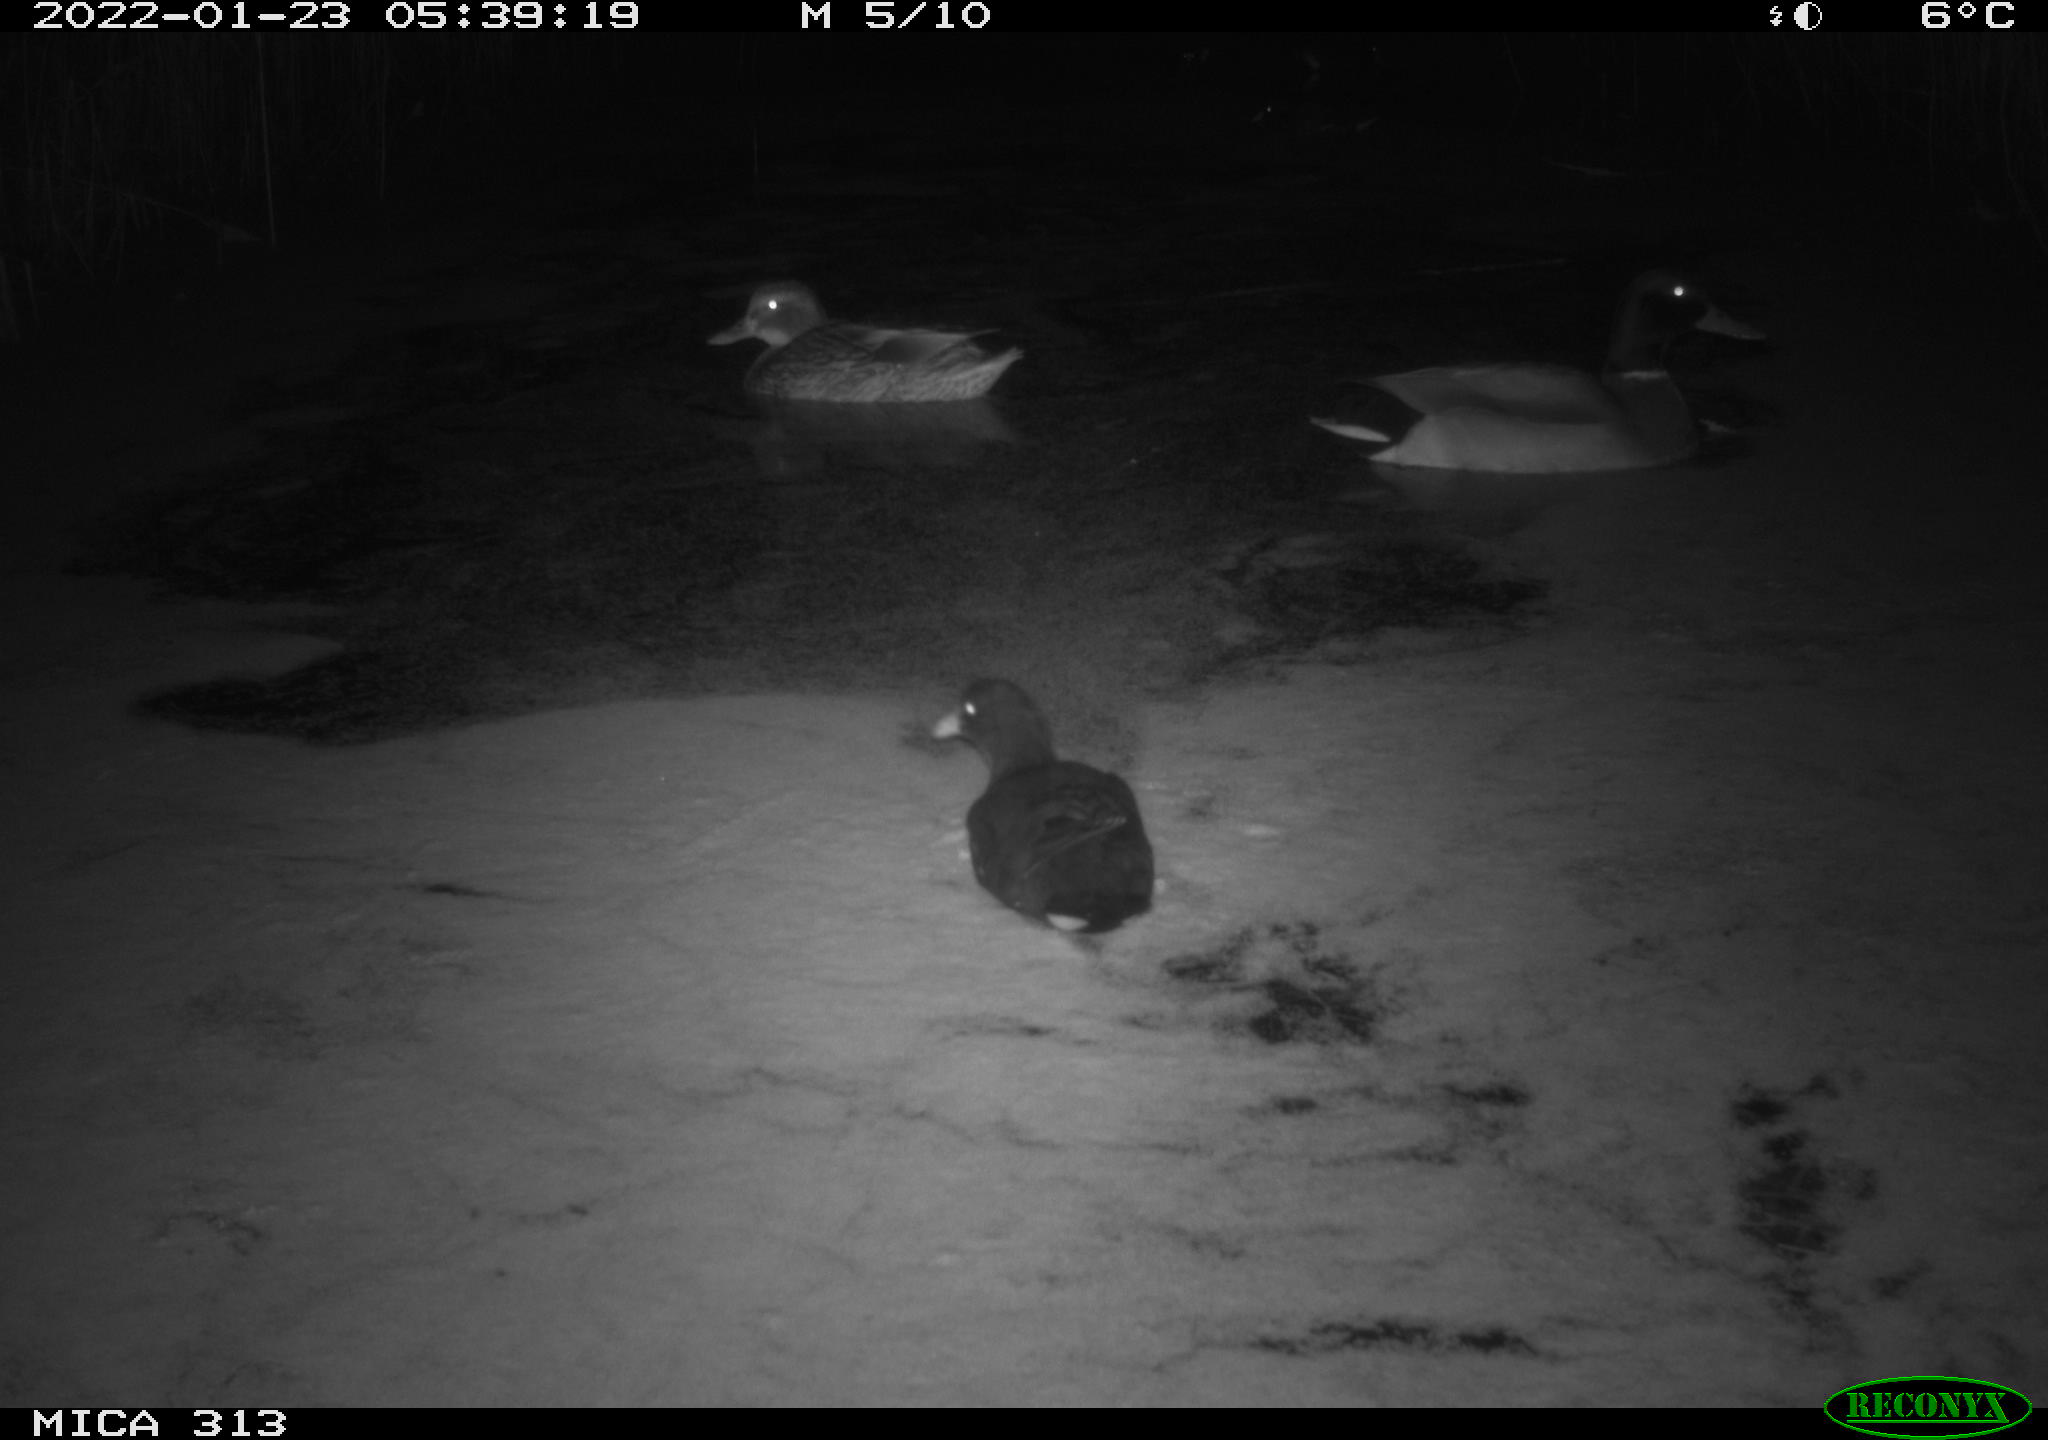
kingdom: Animalia
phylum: Chordata
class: Aves
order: Gruiformes
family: Rallidae
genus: Fulica
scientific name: Fulica atra
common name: Eurasian coot
